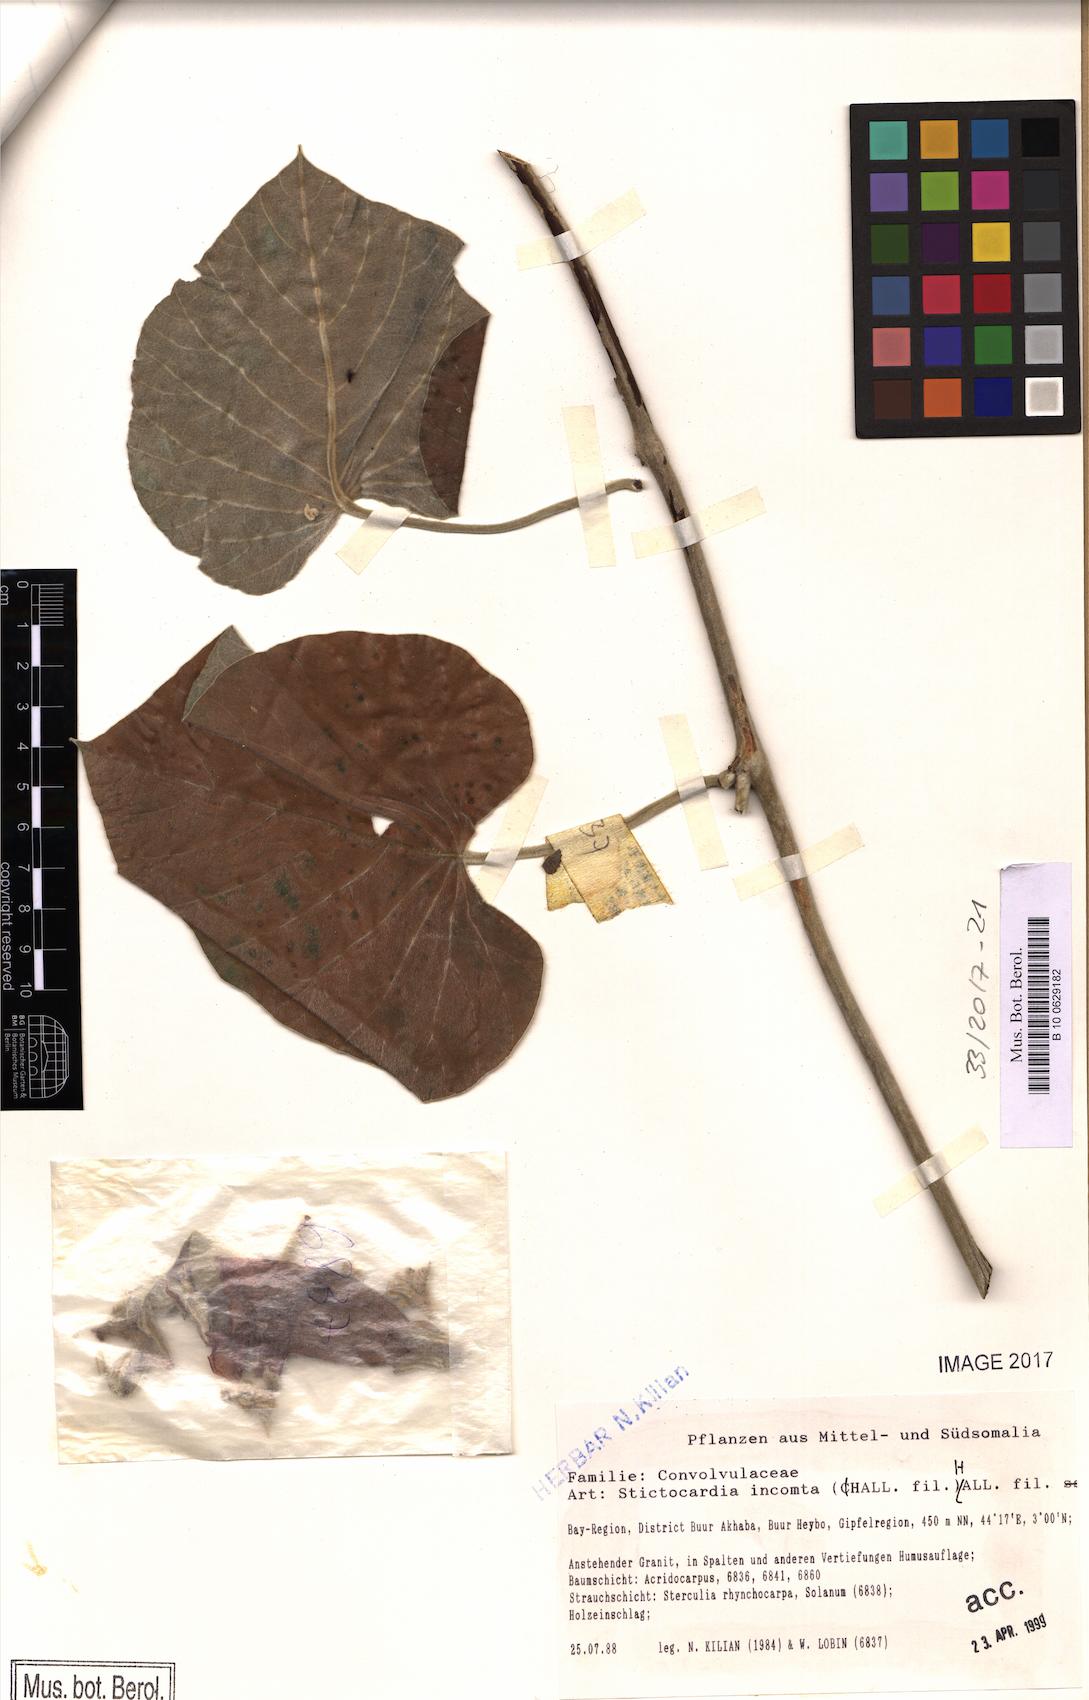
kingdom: Plantae
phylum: Tracheophyta
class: Magnoliopsida
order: Solanales
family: Convolvulaceae
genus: Stictocardia
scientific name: Stictocardia incomta
